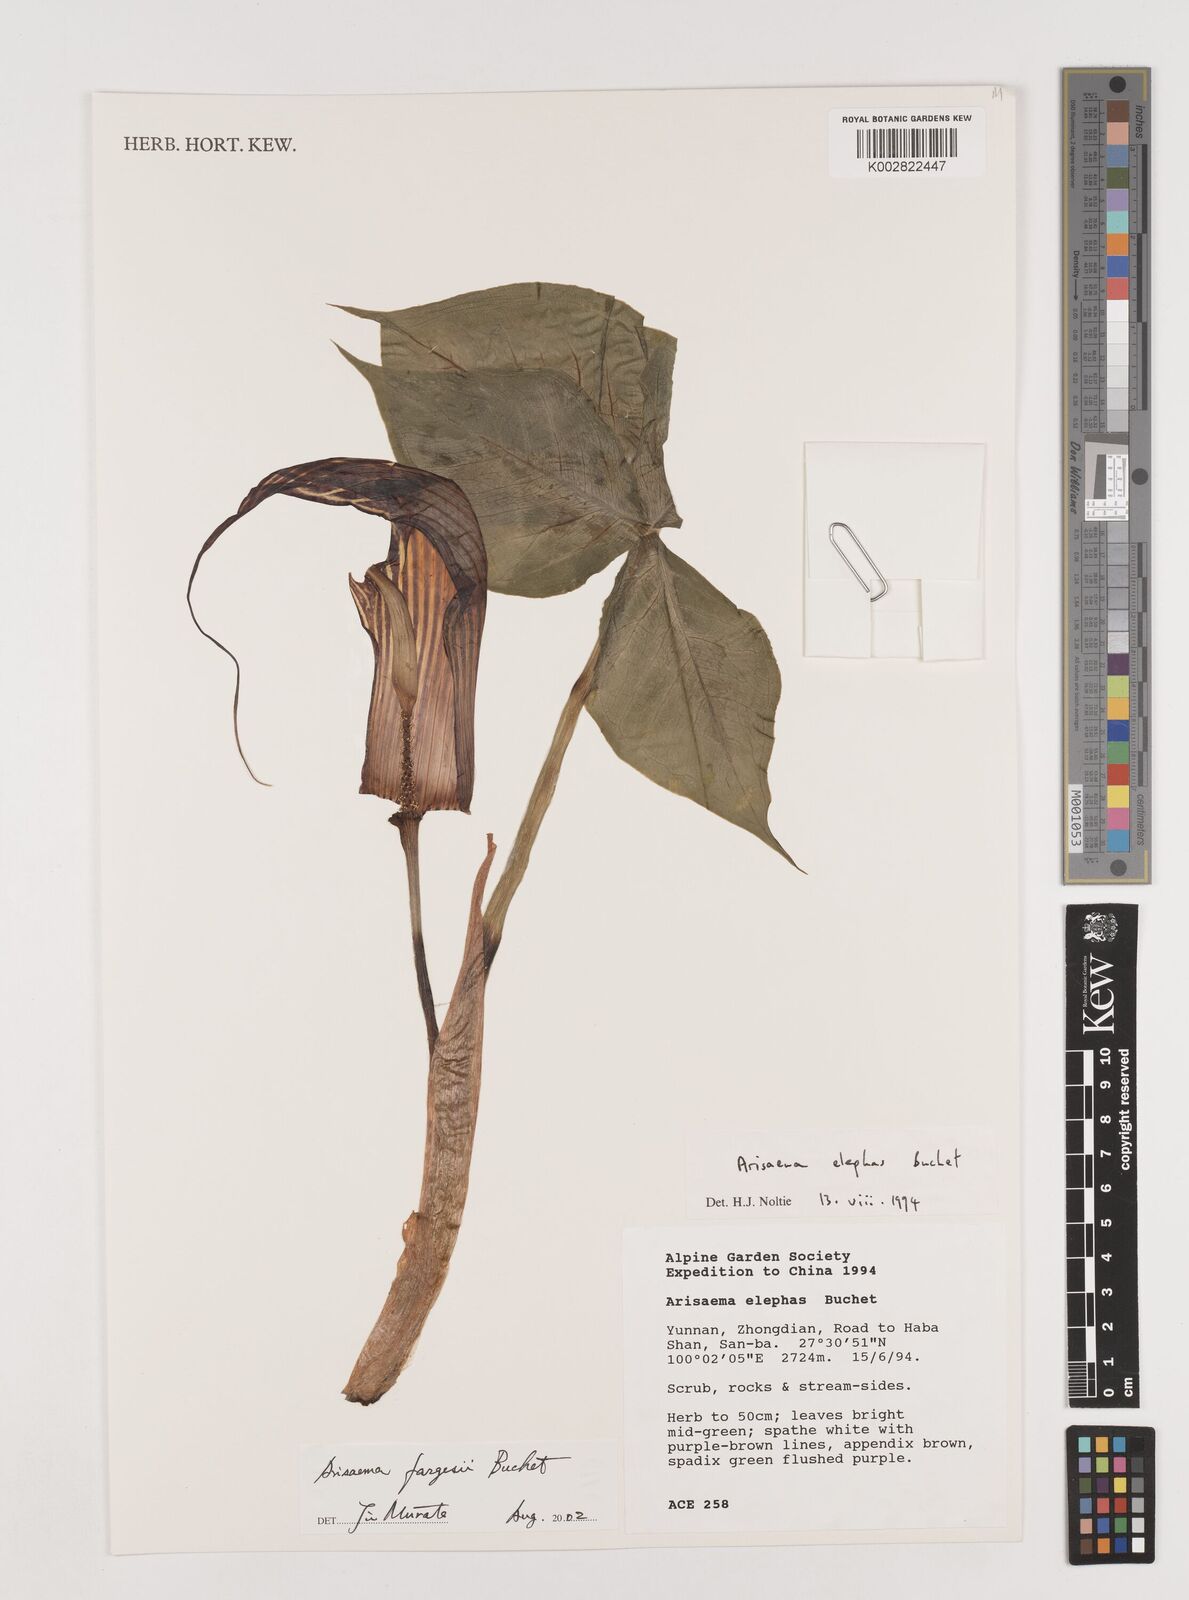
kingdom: Plantae
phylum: Tracheophyta
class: Liliopsida
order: Alismatales
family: Araceae
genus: Arisaema
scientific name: Arisaema fargesii
